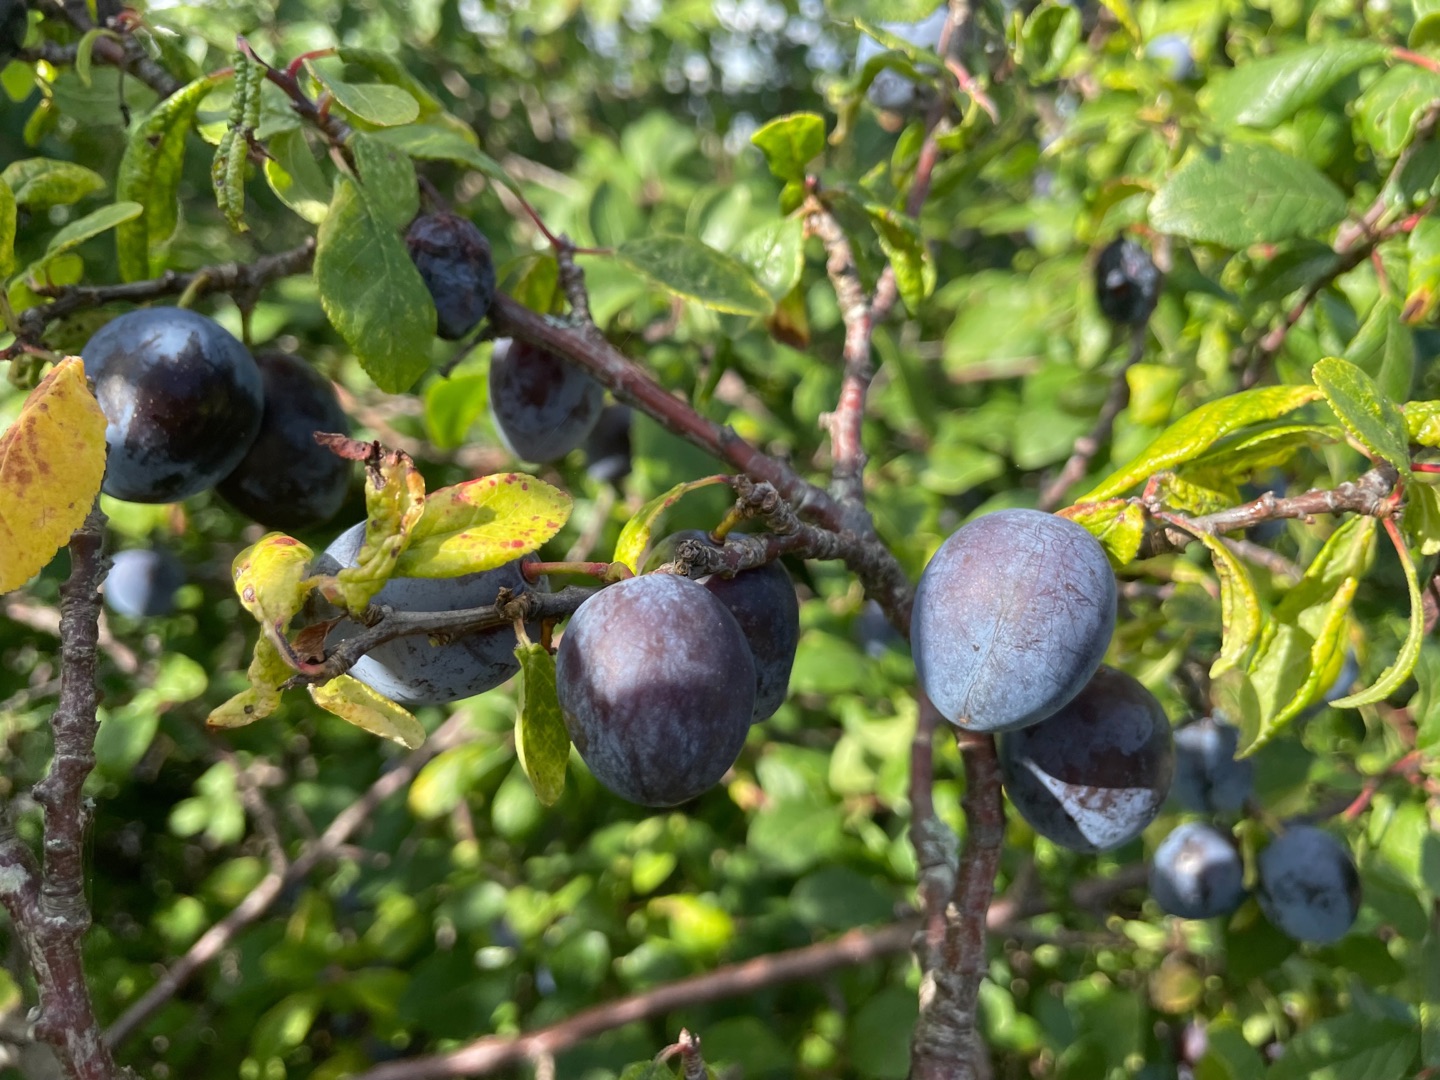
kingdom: Plantae
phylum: Tracheophyta
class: Magnoliopsida
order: Rosales
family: Rosaceae
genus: Prunus
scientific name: Prunus domestica
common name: Blomme (underart)
